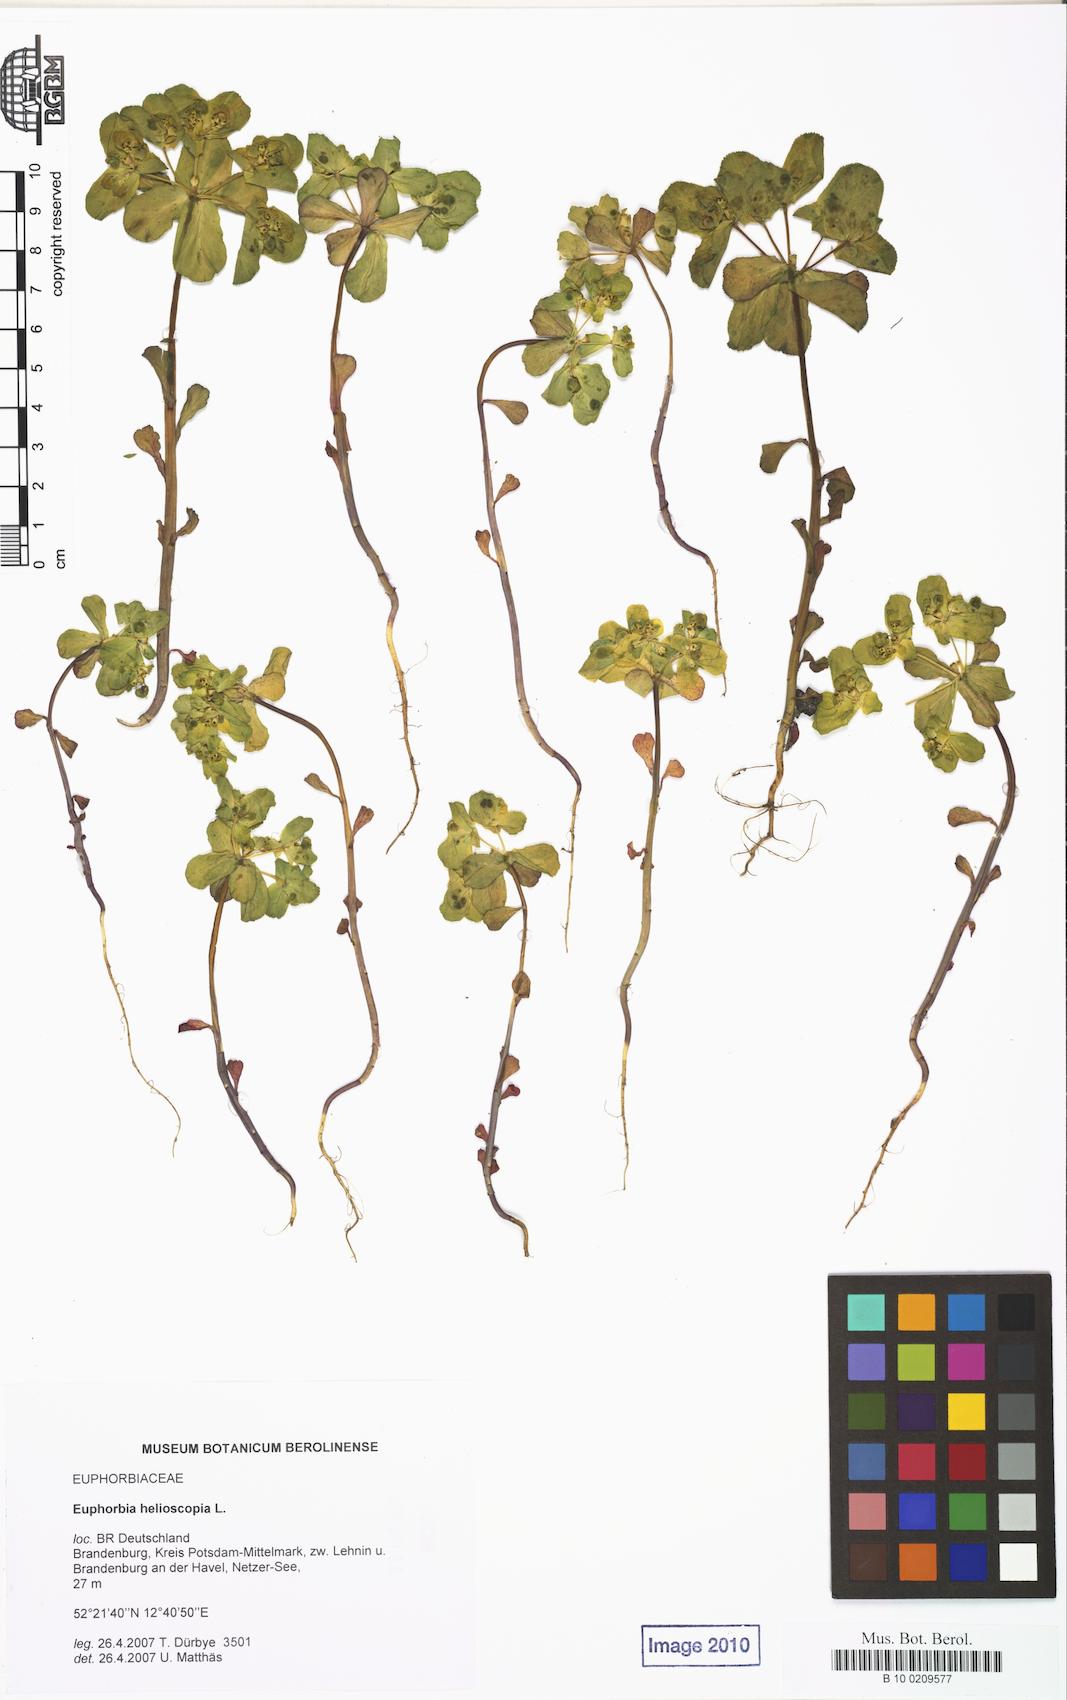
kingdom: Plantae
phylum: Tracheophyta
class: Magnoliopsida
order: Malpighiales
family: Euphorbiaceae
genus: Euphorbia
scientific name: Euphorbia helioscopia
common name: Sun spurge
